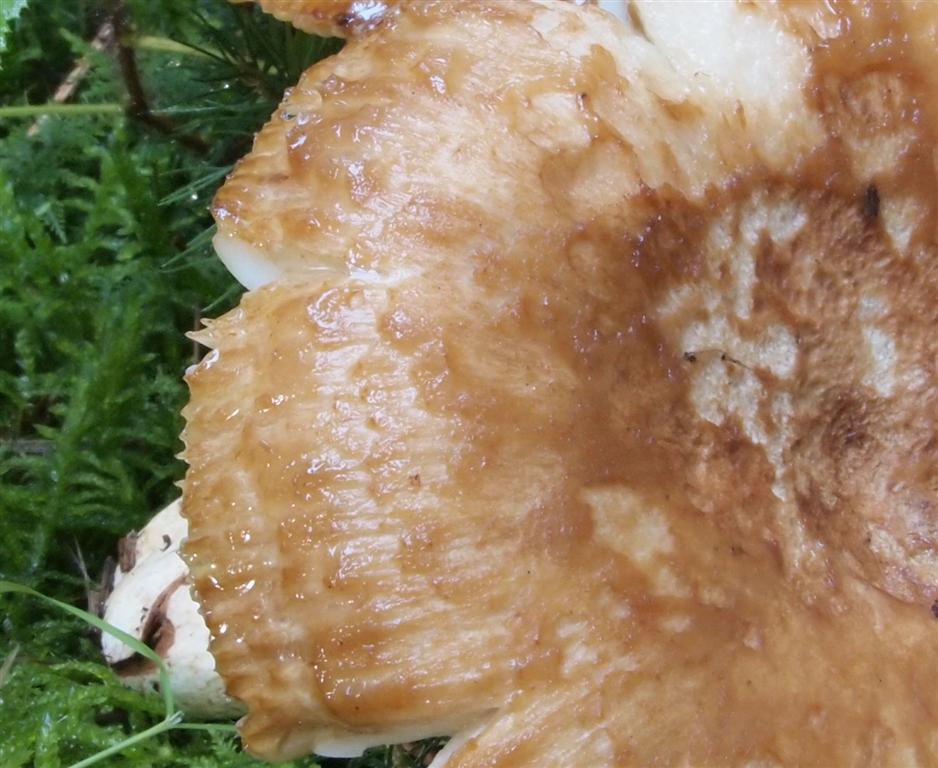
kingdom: Fungi
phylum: Basidiomycota
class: Agaricomycetes
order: Russulales
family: Russulaceae
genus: Russula
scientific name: Russula foetens
